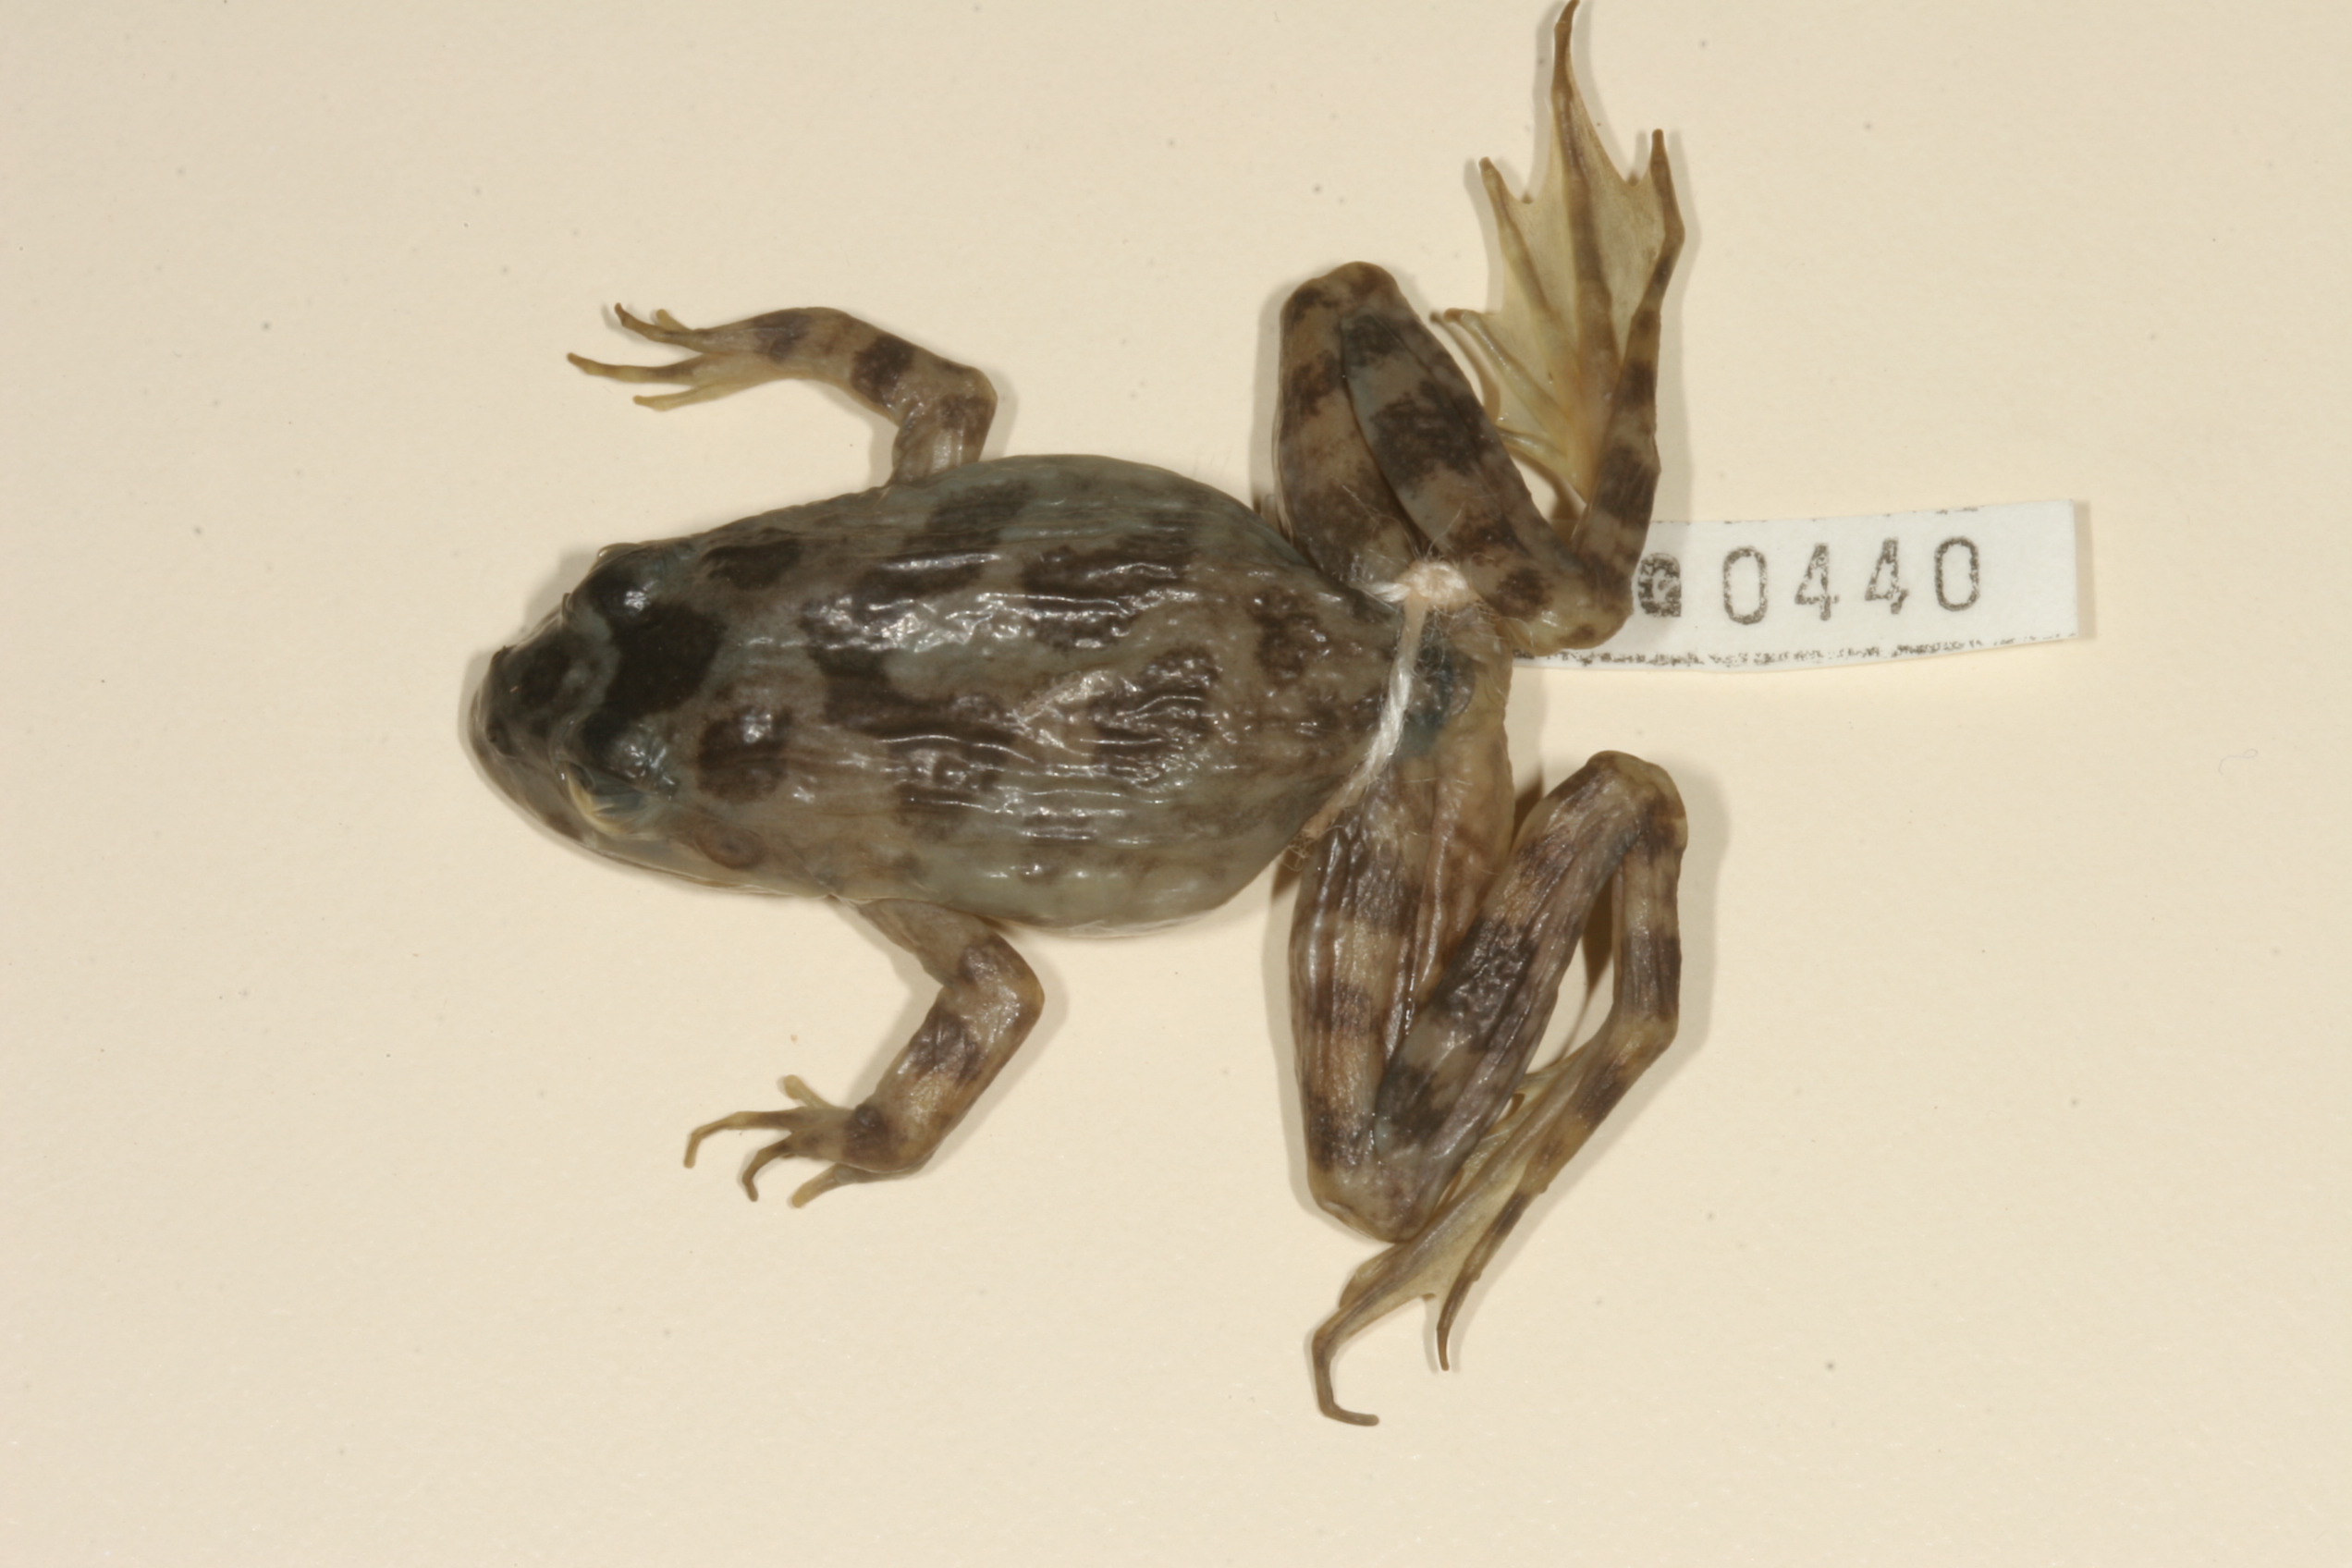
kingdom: Animalia
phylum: Chordata
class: Amphibia
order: Anura
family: Pyxicephalidae
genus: Amietia
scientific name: Amietia fuscigula
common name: Cape rana
